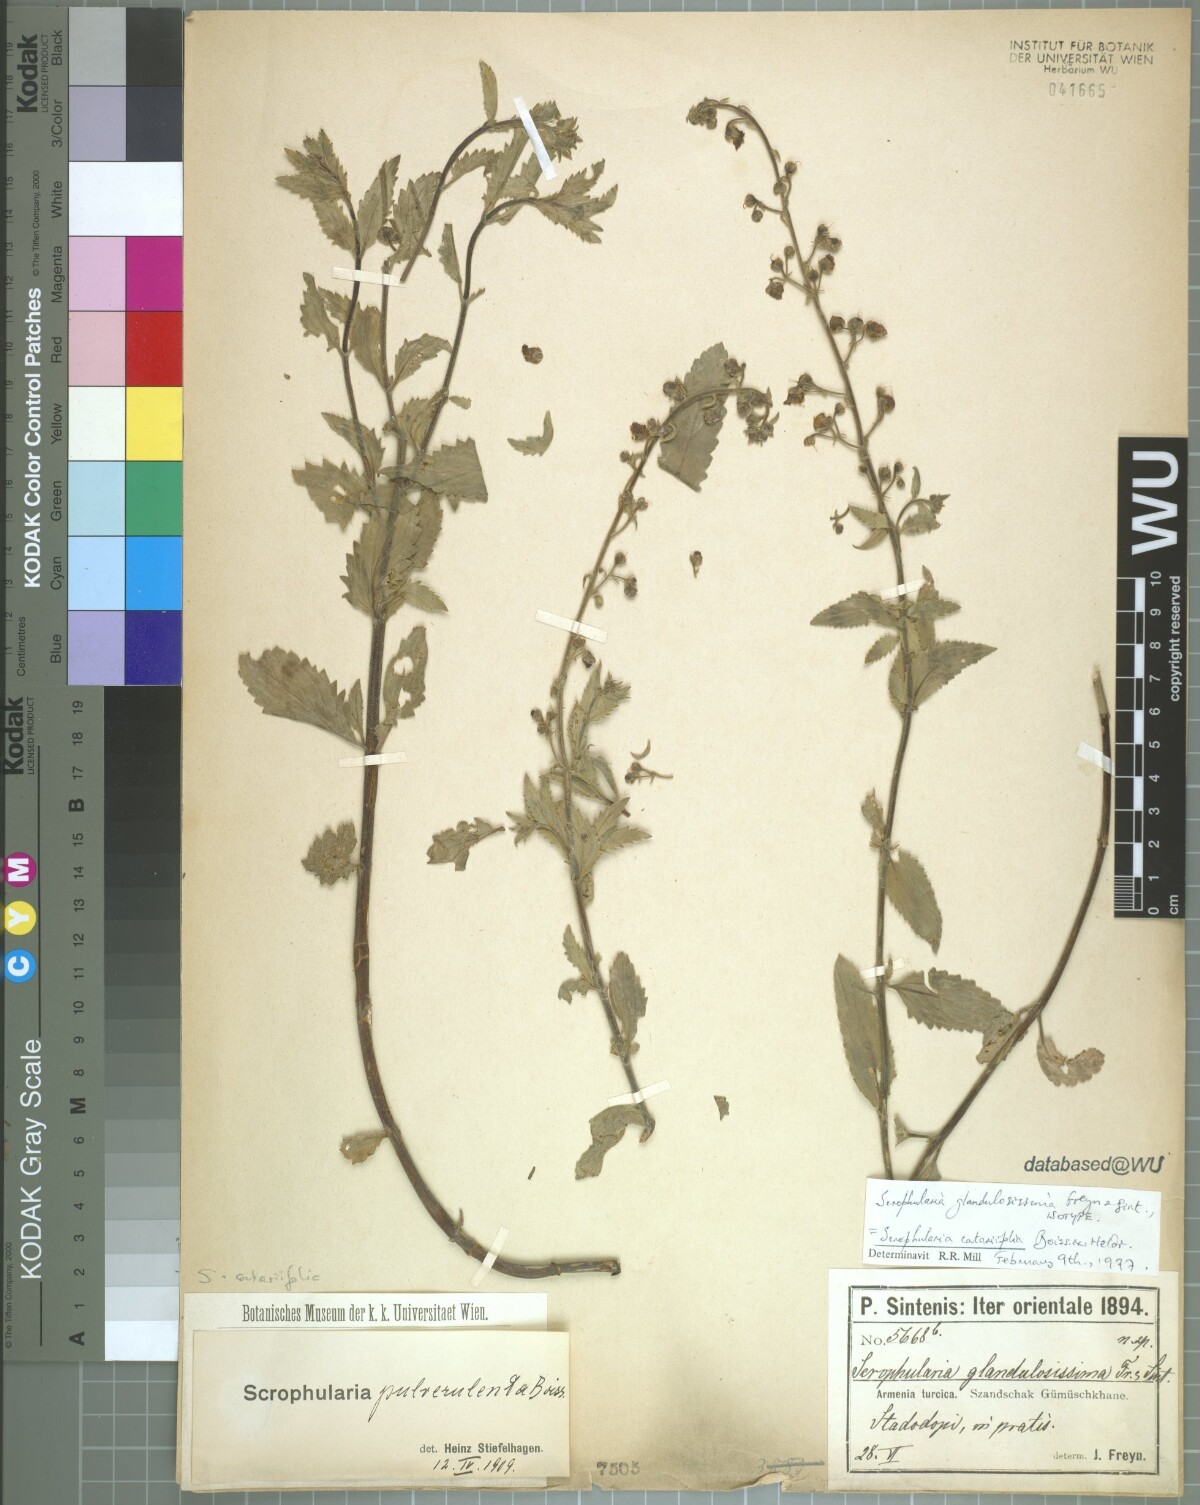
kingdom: Plantae
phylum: Tracheophyta
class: Magnoliopsida
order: Lamiales
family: Scrophulariaceae
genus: Scrophularia
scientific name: Scrophularia catariifolia
